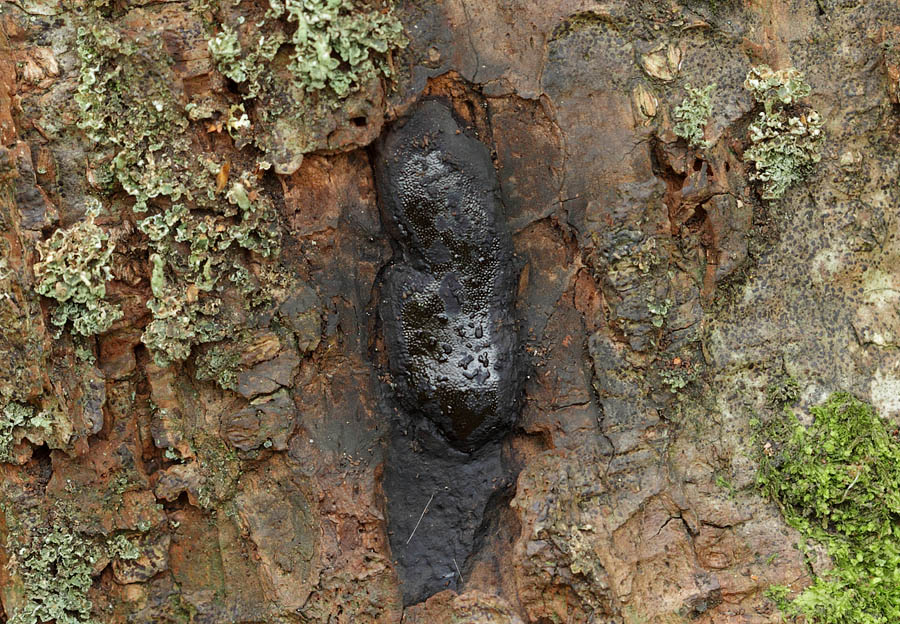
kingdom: Fungi
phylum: Ascomycota
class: Sordariomycetes
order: Boliniales
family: Boliniaceae
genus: Camarops
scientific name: Camarops polysperma
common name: elle-kulsnegl
